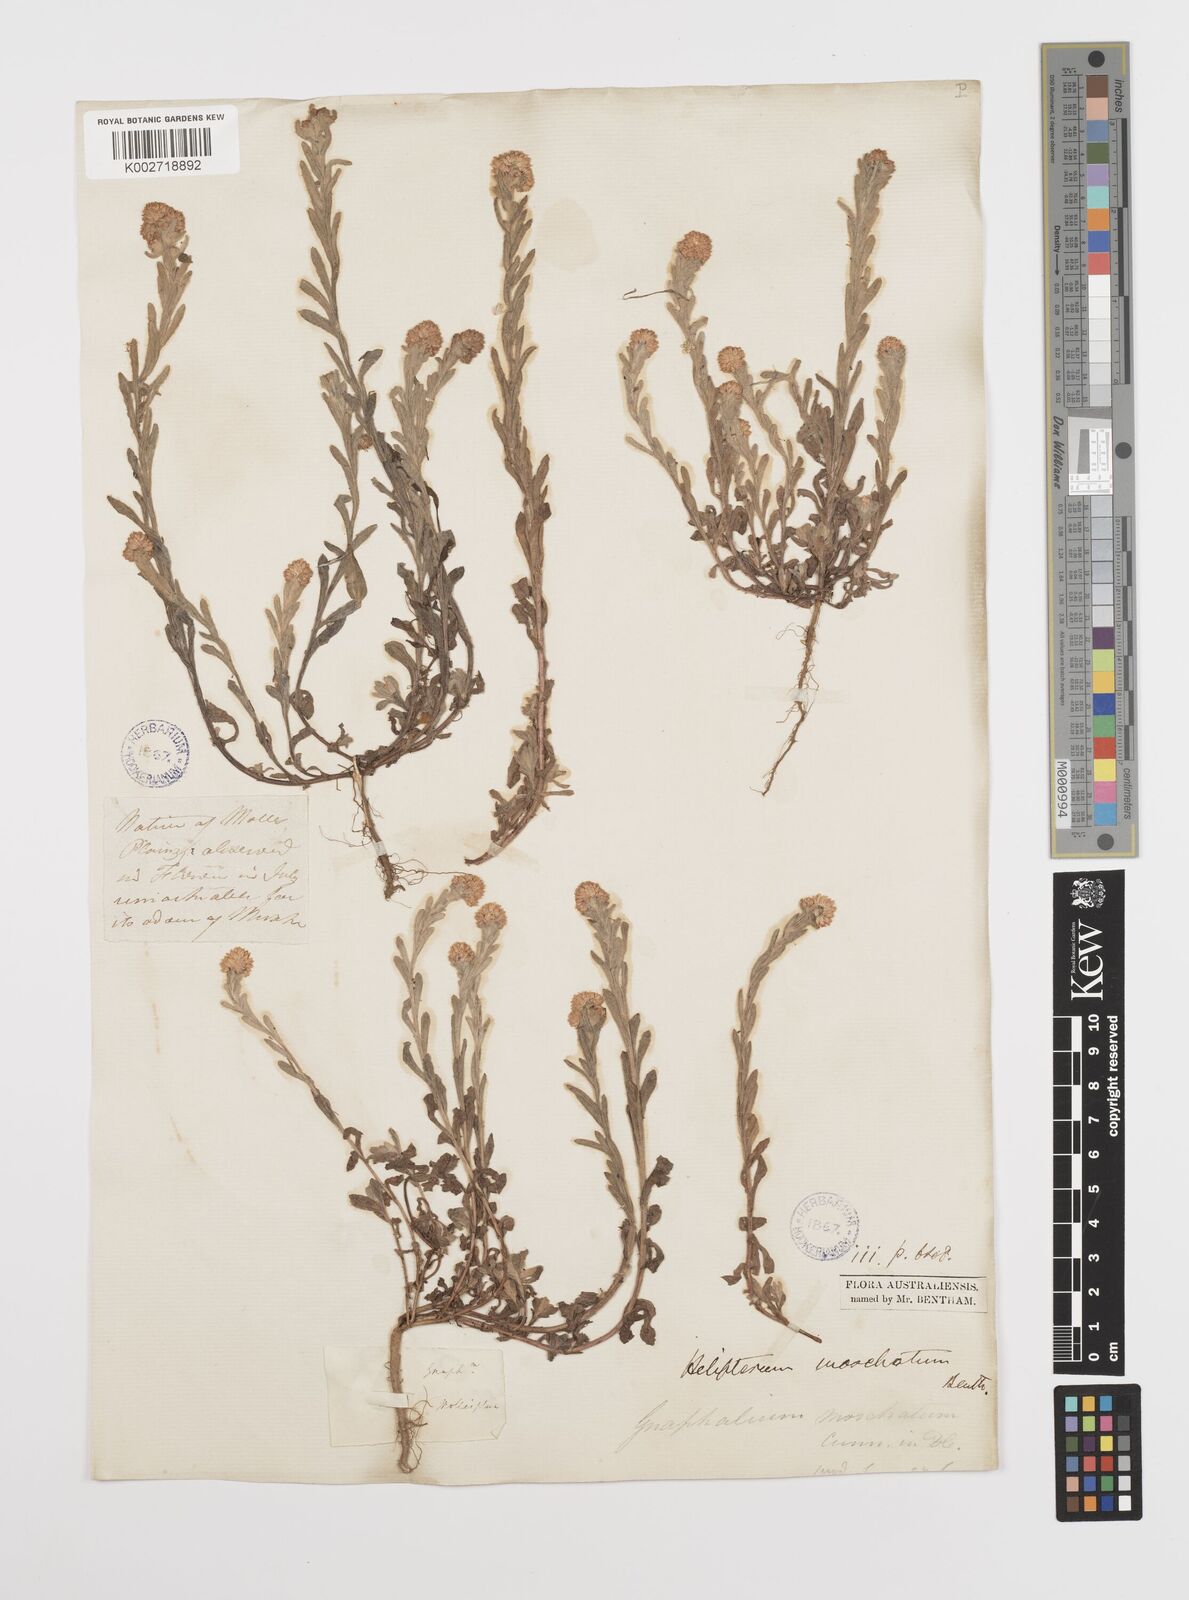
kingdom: Plantae
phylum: Tracheophyta
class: Magnoliopsida
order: Asterales
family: Asteraceae
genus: Rhodanthe
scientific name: Rhodanthe moschata
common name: Musk sunray
